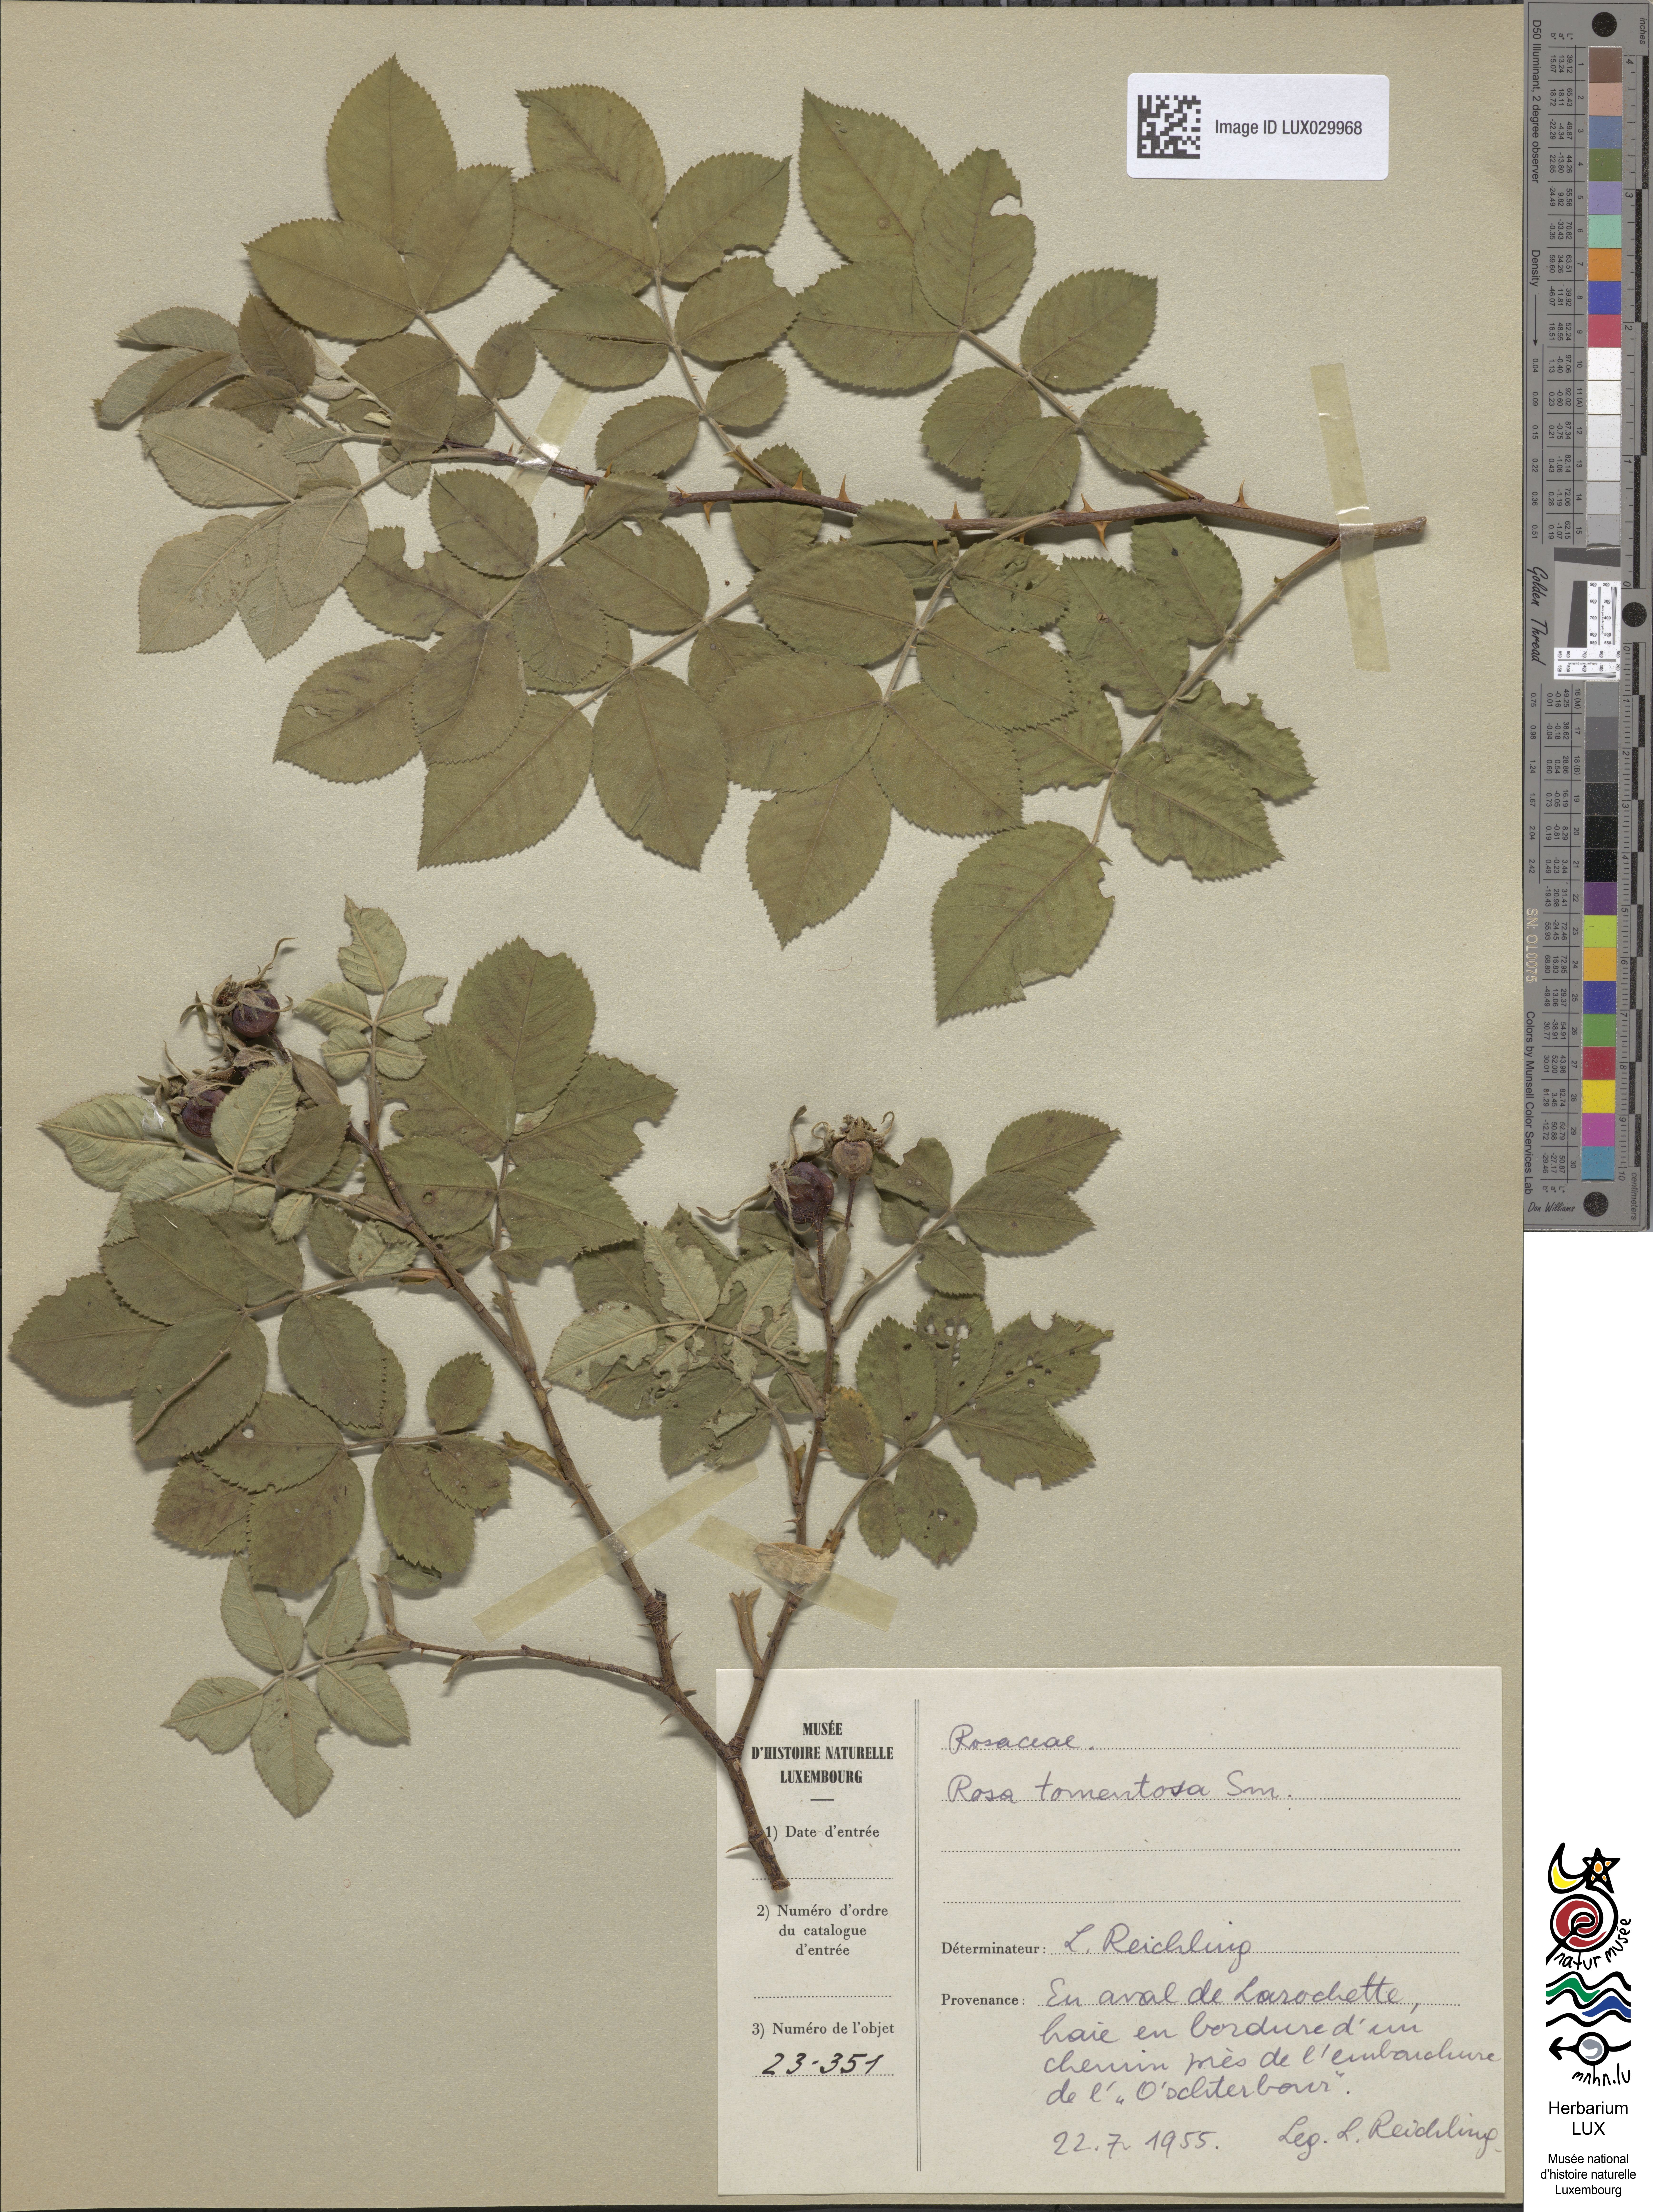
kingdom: Plantae
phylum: Tracheophyta
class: Magnoliopsida
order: Rosales
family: Rosaceae
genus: Rosa
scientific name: Rosa tomentosa
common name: Downy rose
